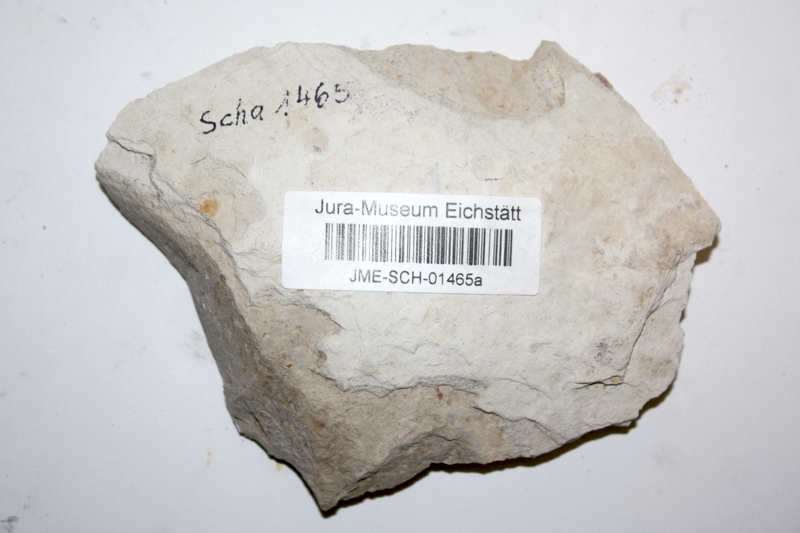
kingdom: Animalia
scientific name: Animalia
